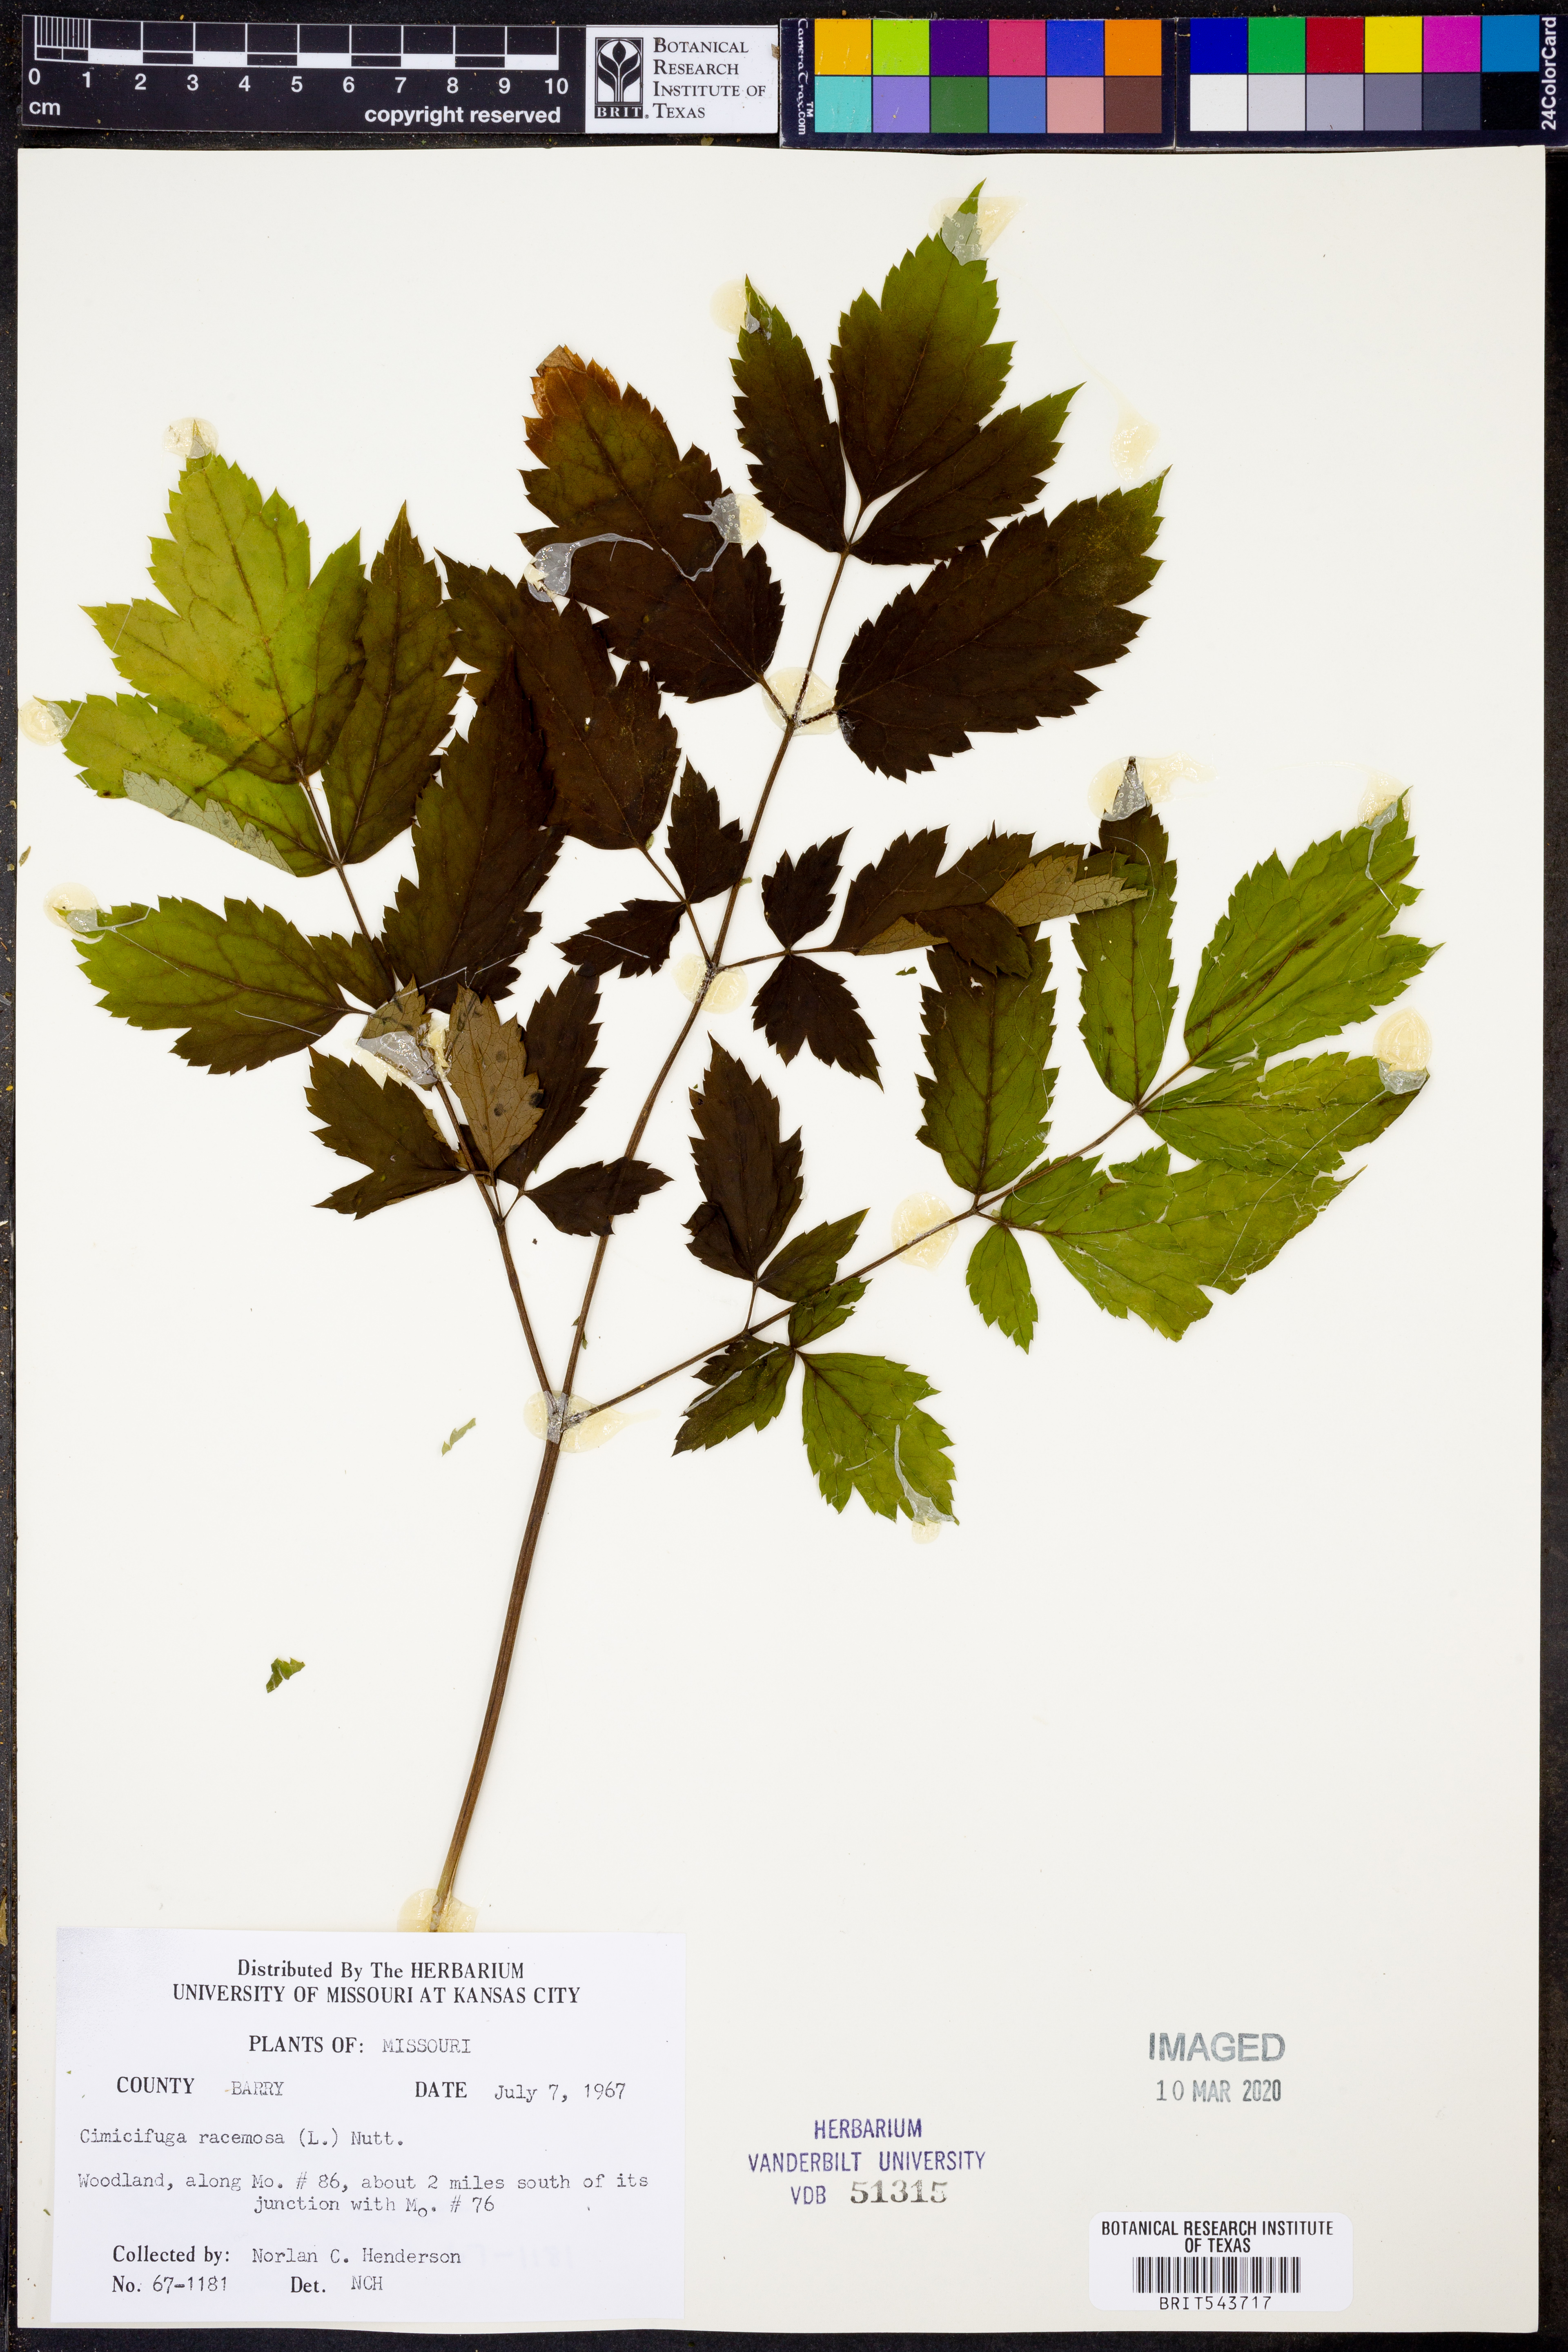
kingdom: Plantae
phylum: Tracheophyta
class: Magnoliopsida
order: Ranunculales
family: Ranunculaceae
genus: Actaea
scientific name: Actaea racemosa
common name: Black cohosh
